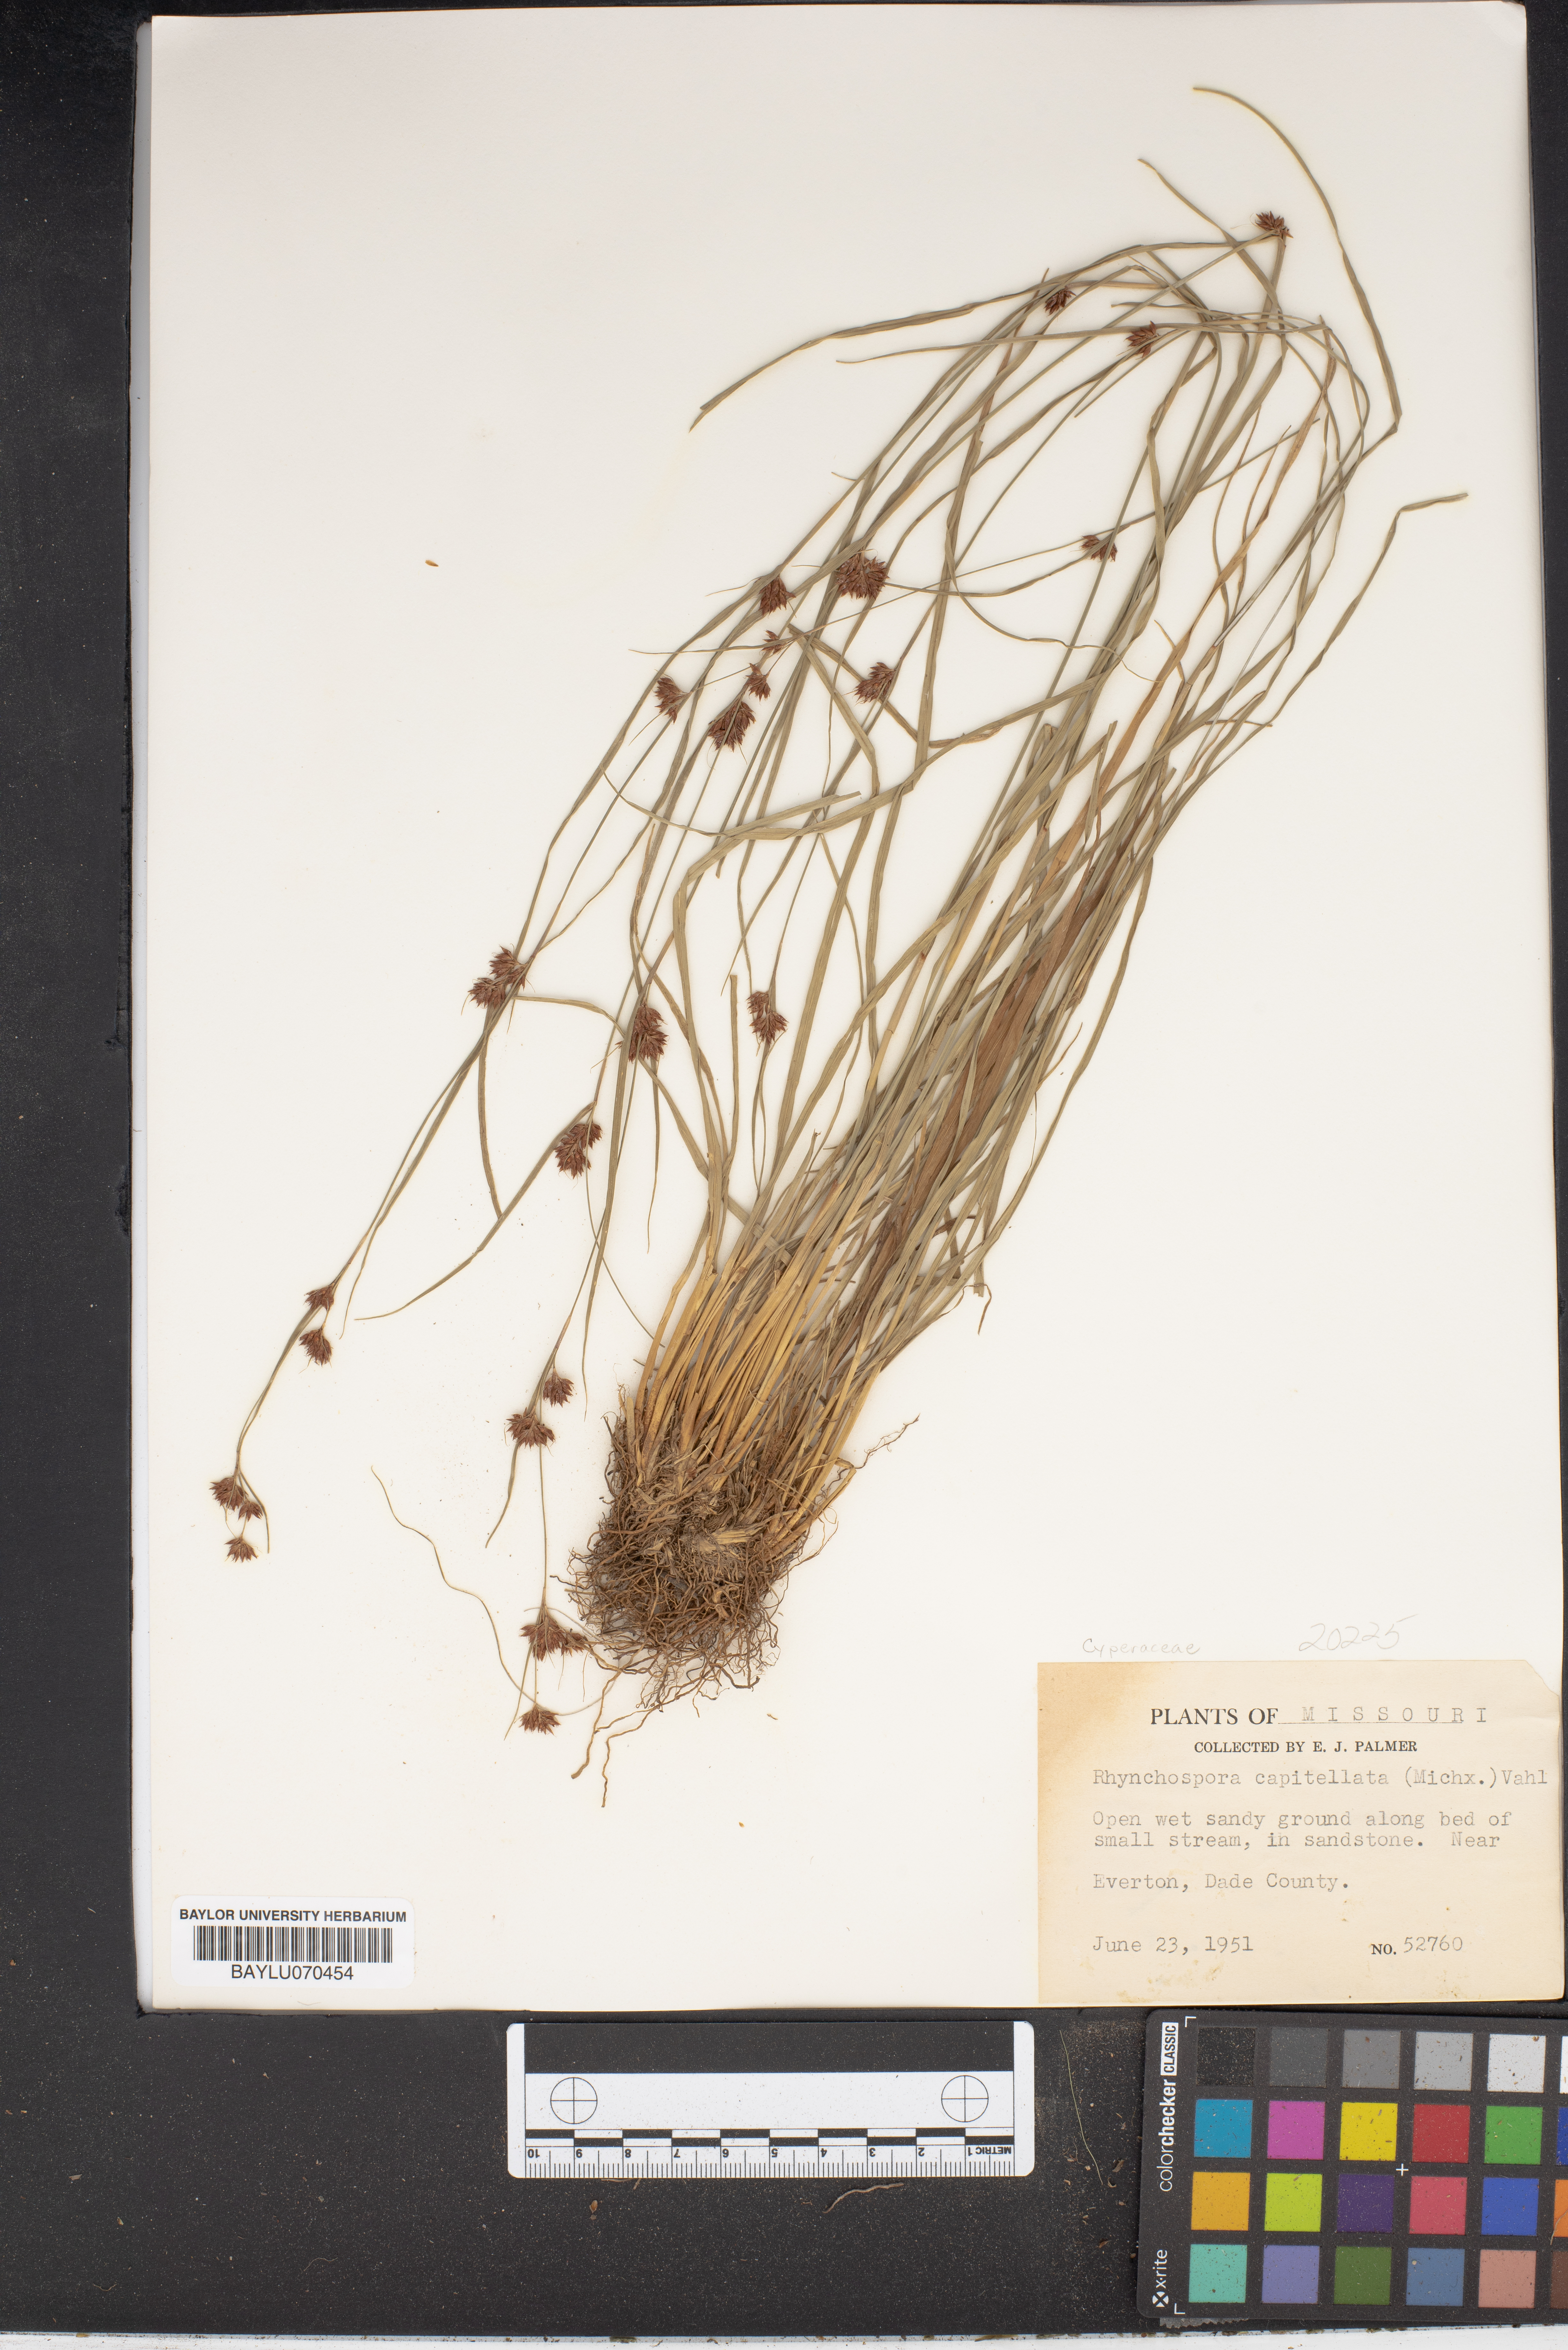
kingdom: Plantae
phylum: Tracheophyta
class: Liliopsida
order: Poales
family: Cyperaceae
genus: Rhynchospora
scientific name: Rhynchospora capitellata
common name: Brownish beaksedge
